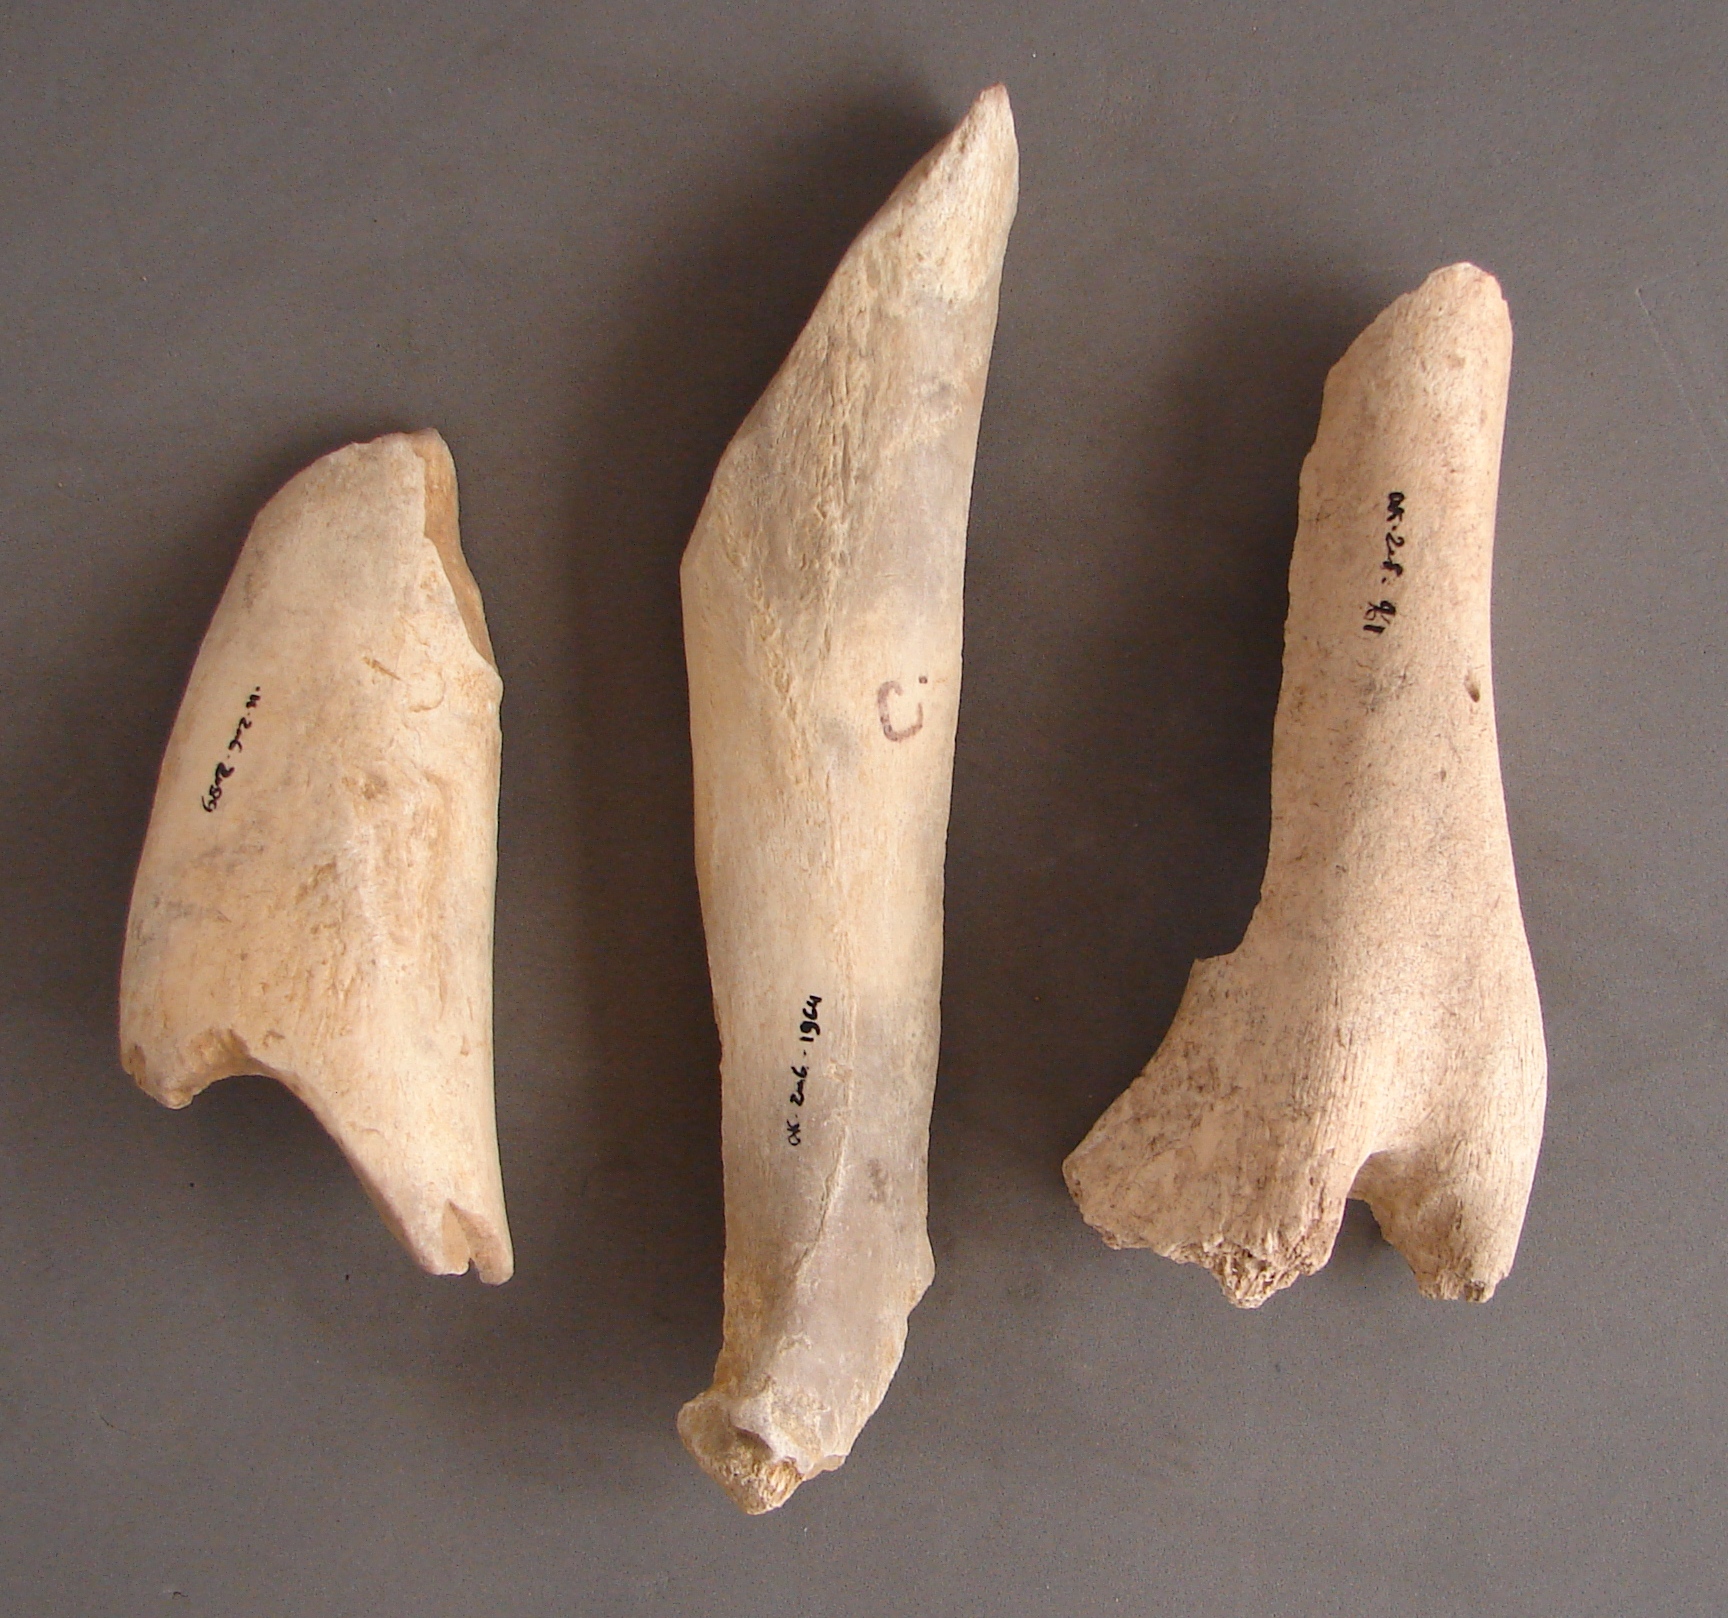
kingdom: Animalia
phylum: Chordata
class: Mammalia
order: Artiodactyla
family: Cervidae
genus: Rangifer
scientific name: Rangifer tarandus
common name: Reindeer
